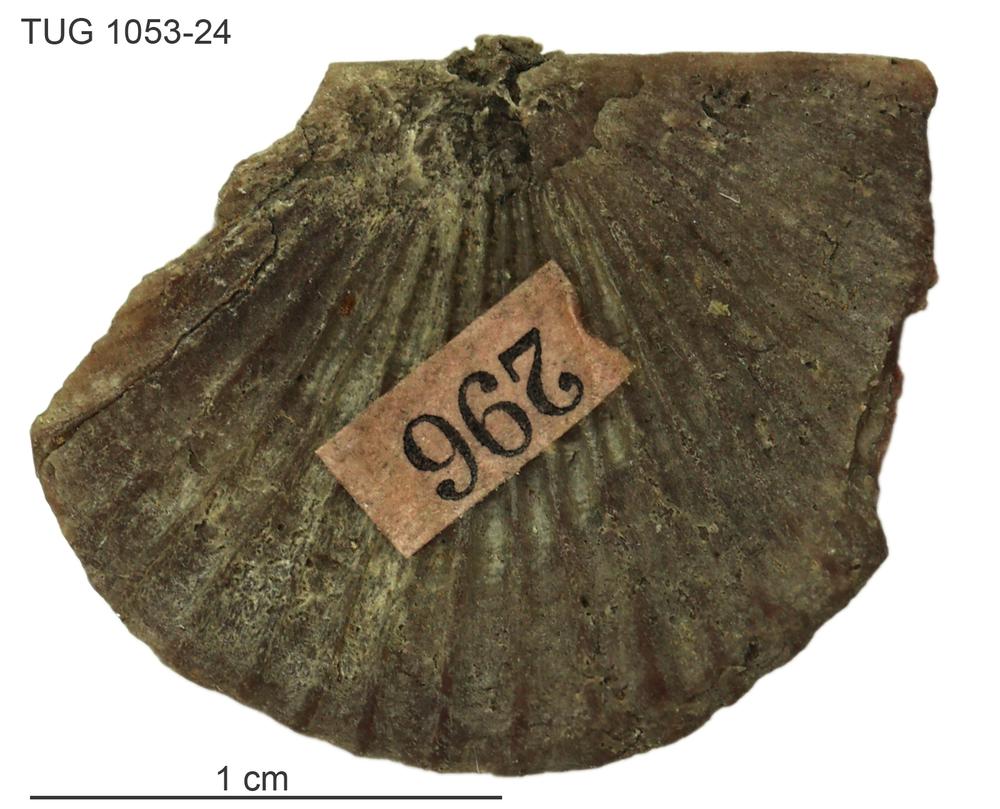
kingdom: Animalia
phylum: Brachiopoda
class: Rhynchonellata
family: Orthidae
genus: Cyrtonotella
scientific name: Cyrtonotella Orthis kuckersiana
